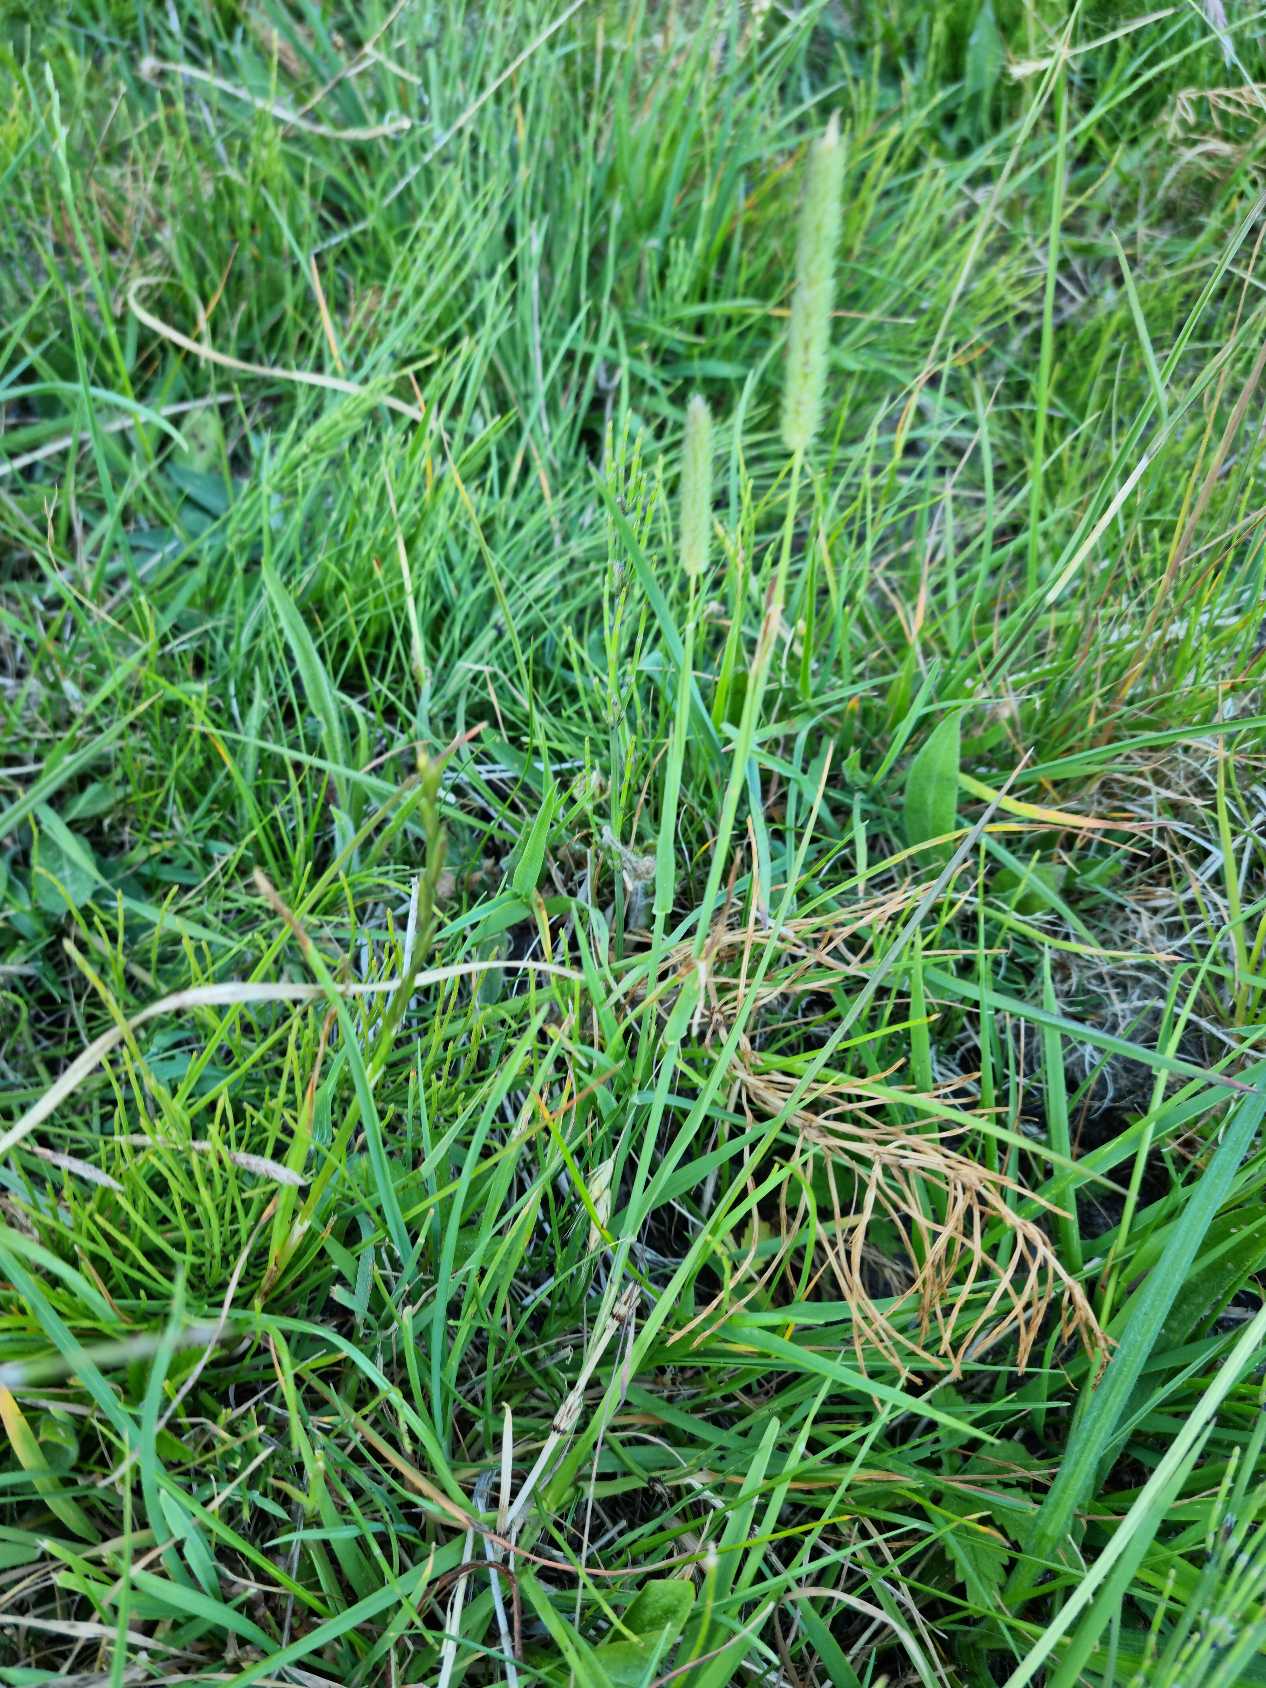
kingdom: Plantae
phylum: Tracheophyta
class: Liliopsida
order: Poales
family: Poaceae
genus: Phleum
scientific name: Phleum pratense
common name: Eng-rottehale
